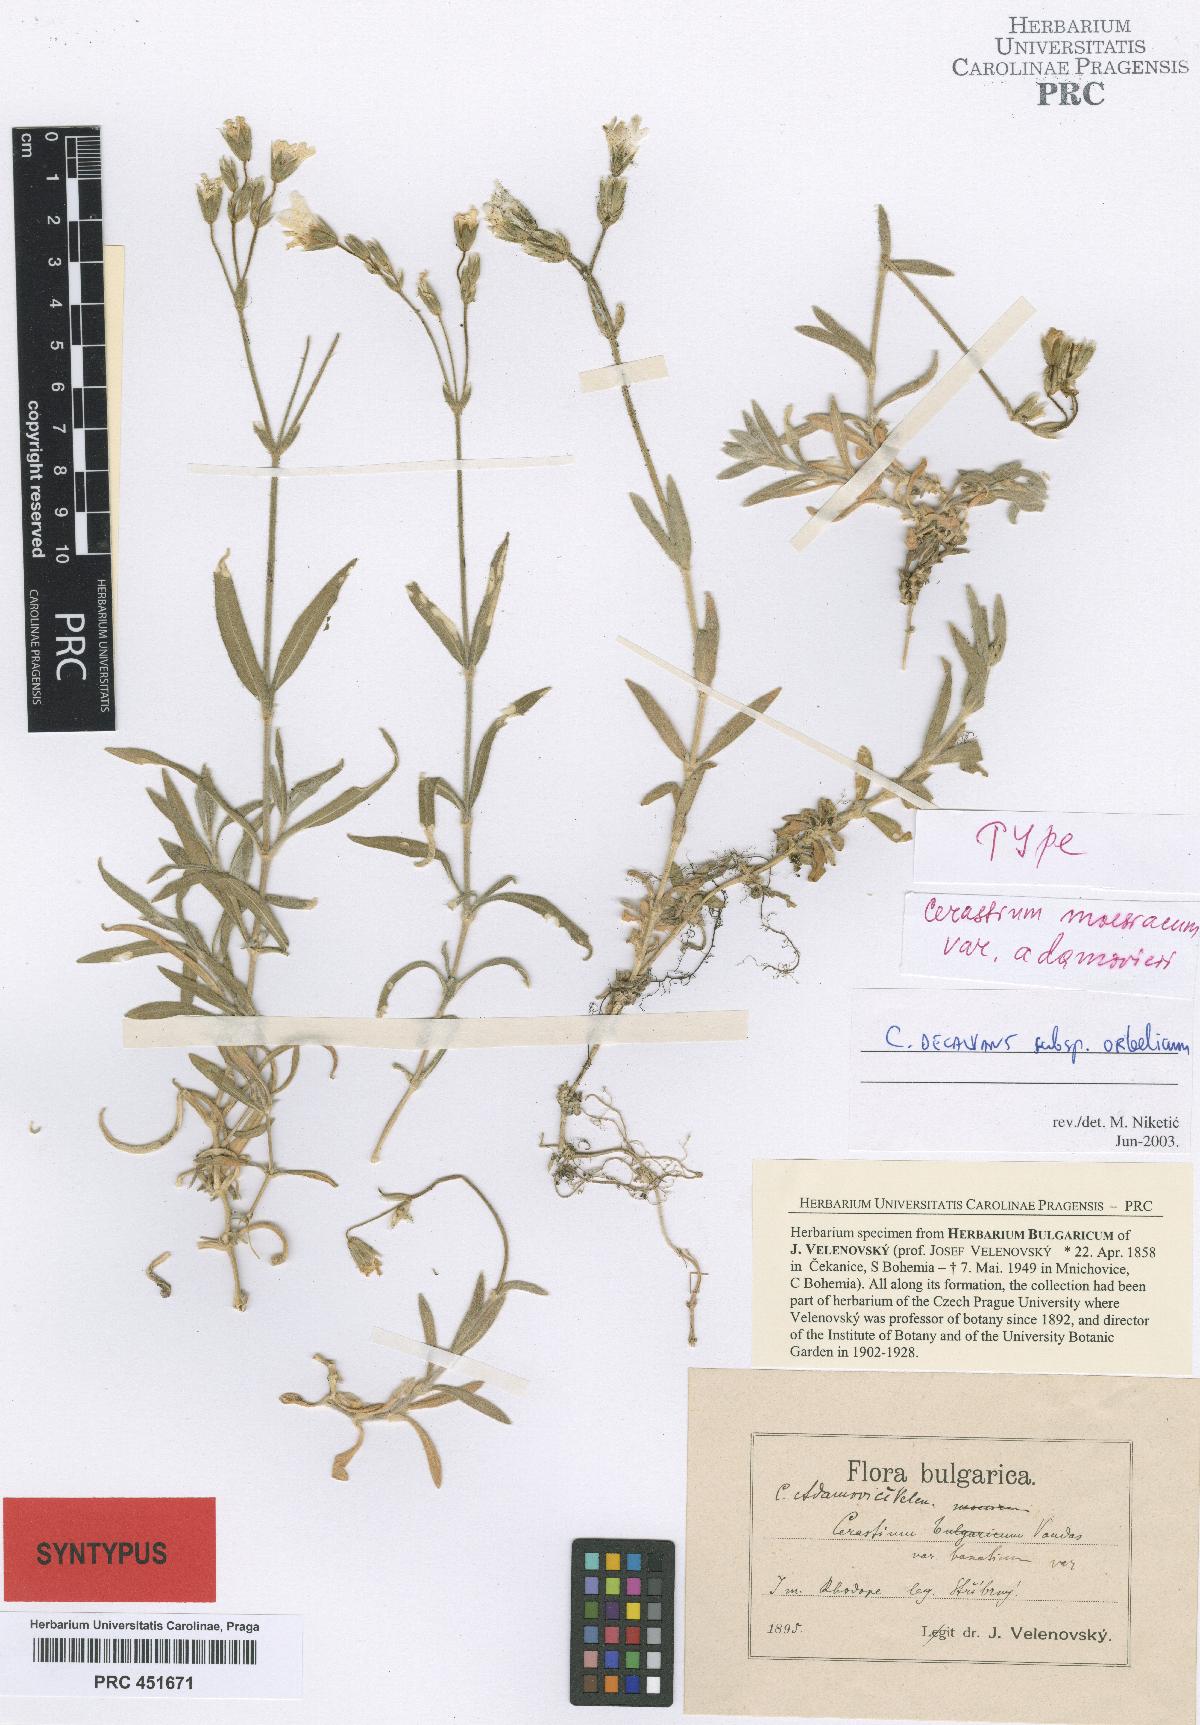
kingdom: Plantae
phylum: Tracheophyta
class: Magnoliopsida
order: Caryophyllales
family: Caryophyllaceae
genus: Cerastium
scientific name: Cerastium decalvans
